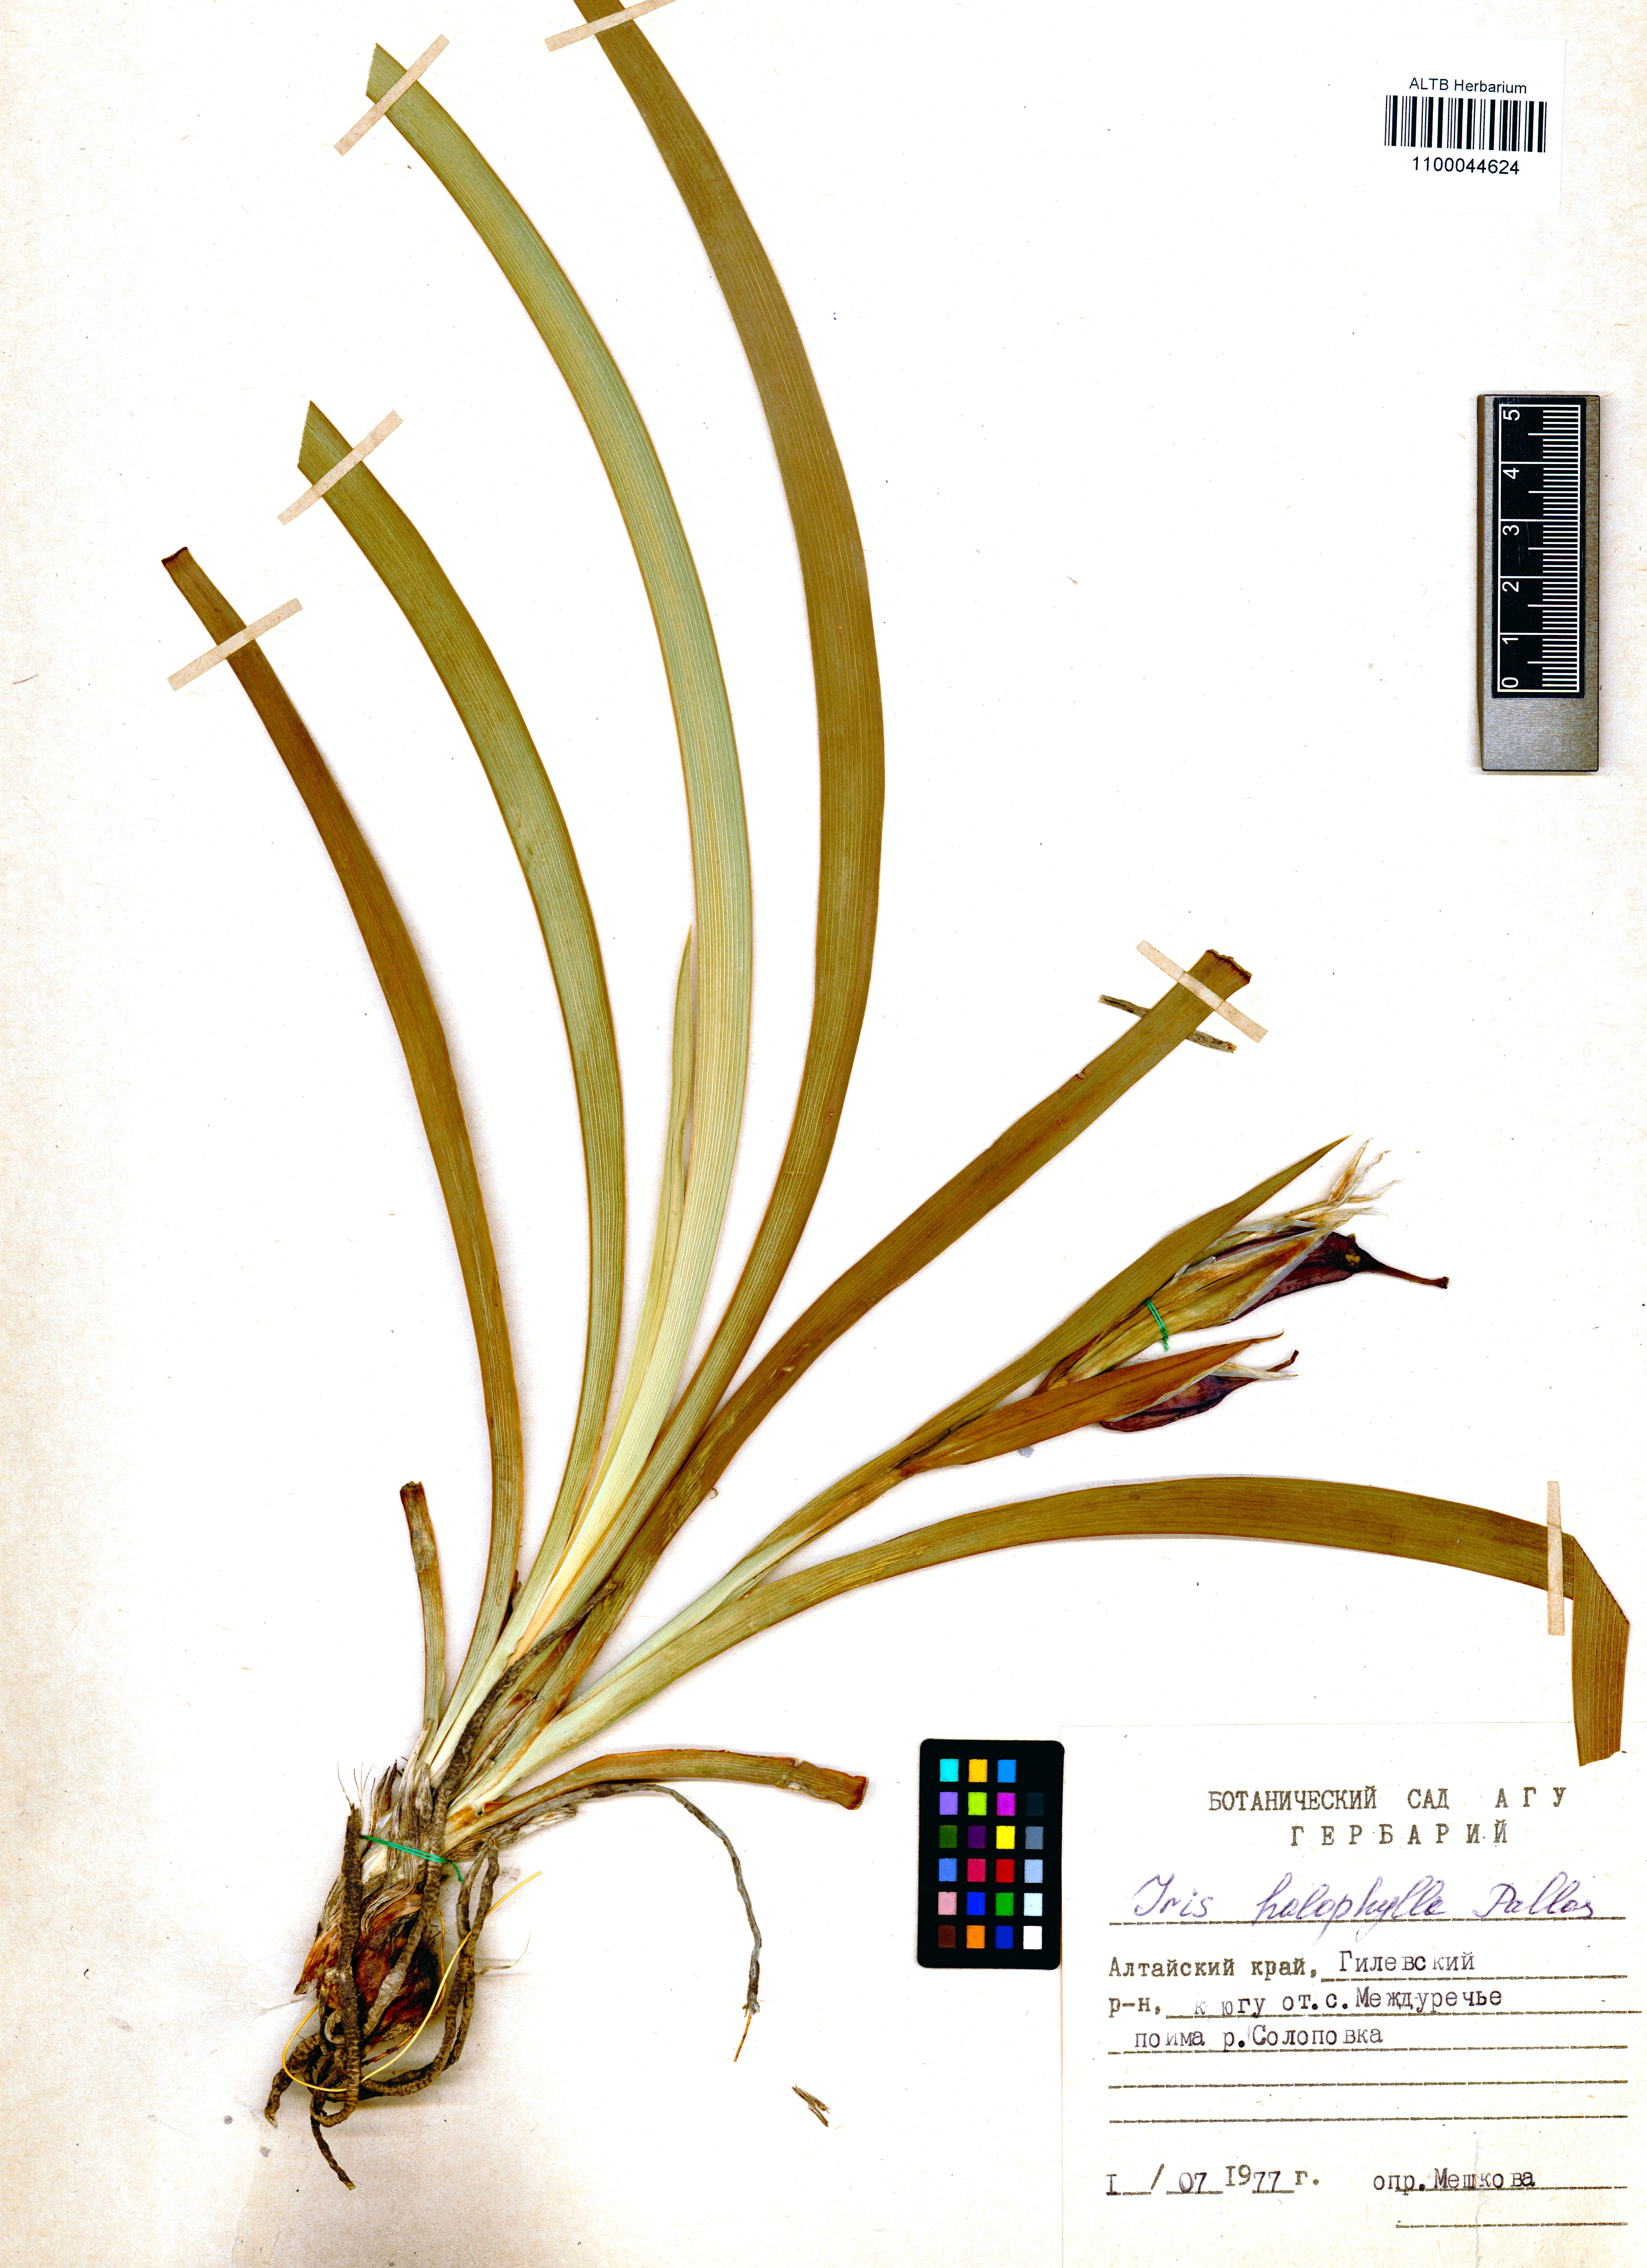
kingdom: Plantae
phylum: Tracheophyta
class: Liliopsida
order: Asparagales
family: Iridaceae
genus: Iris
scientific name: Iris halophila
